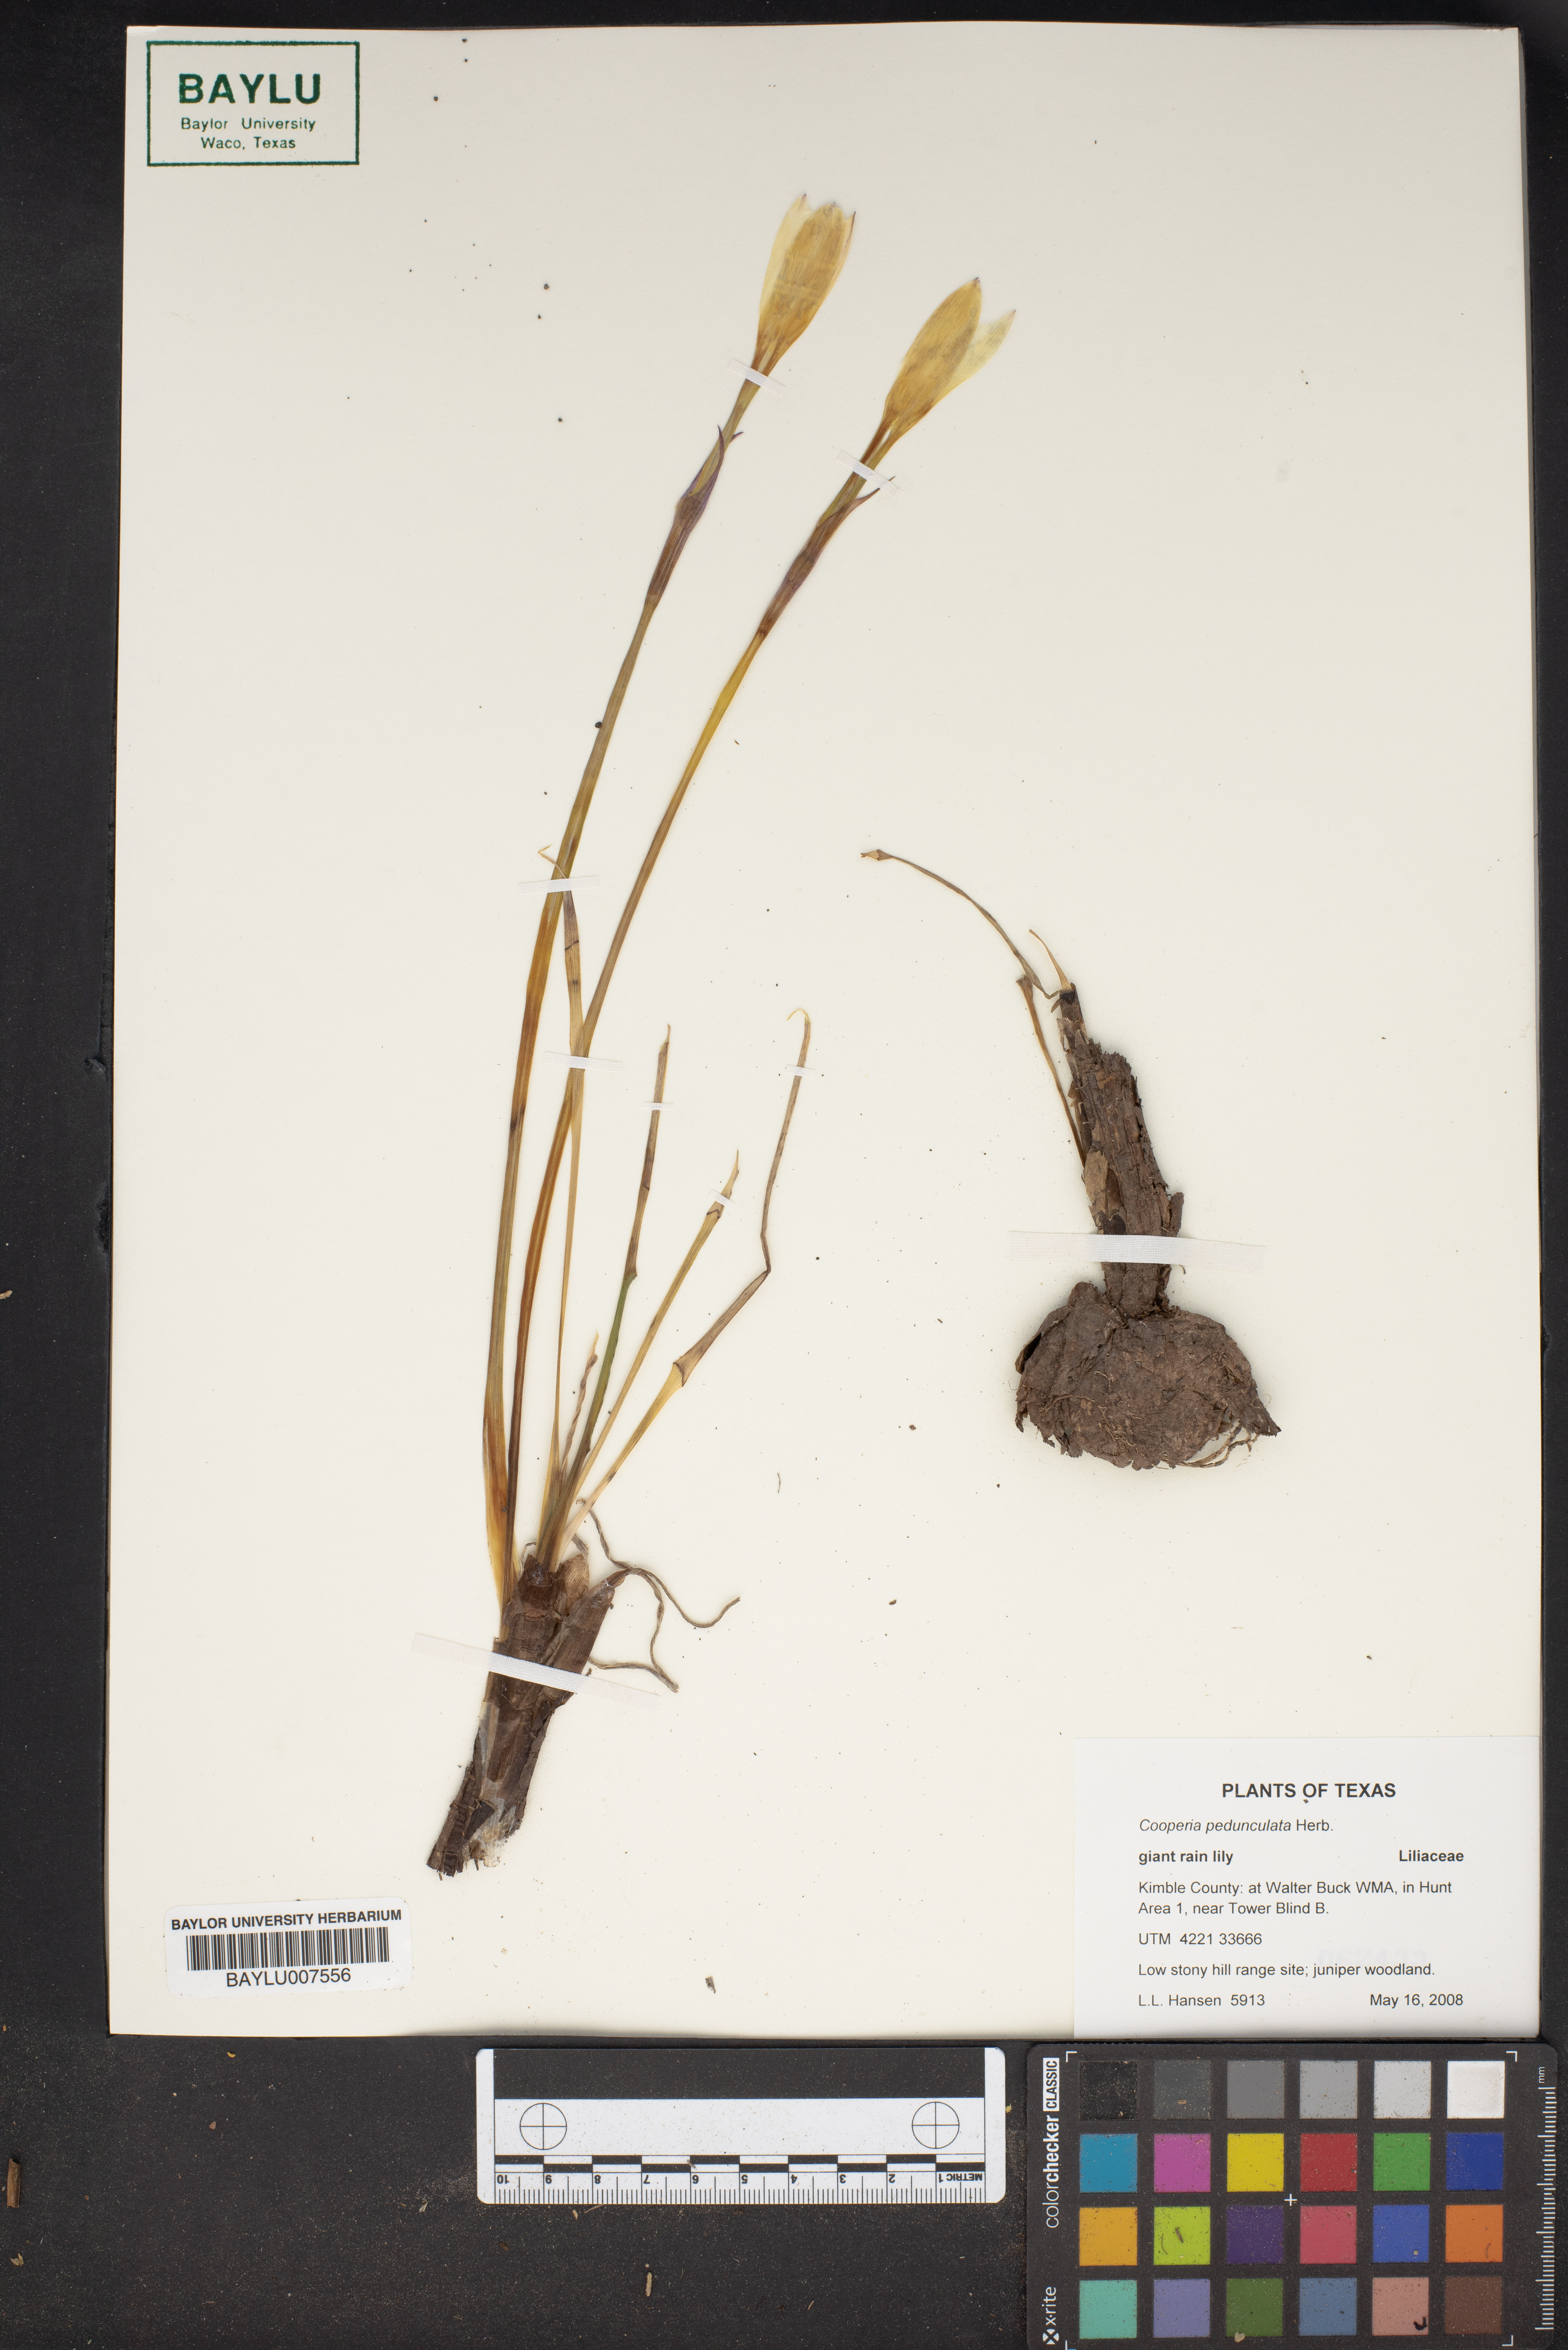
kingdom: Plantae
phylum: Tracheophyta
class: Liliopsida
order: Asparagales
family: Amaryllidaceae
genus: Zephyranthes
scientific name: Zephyranthes drummondii
